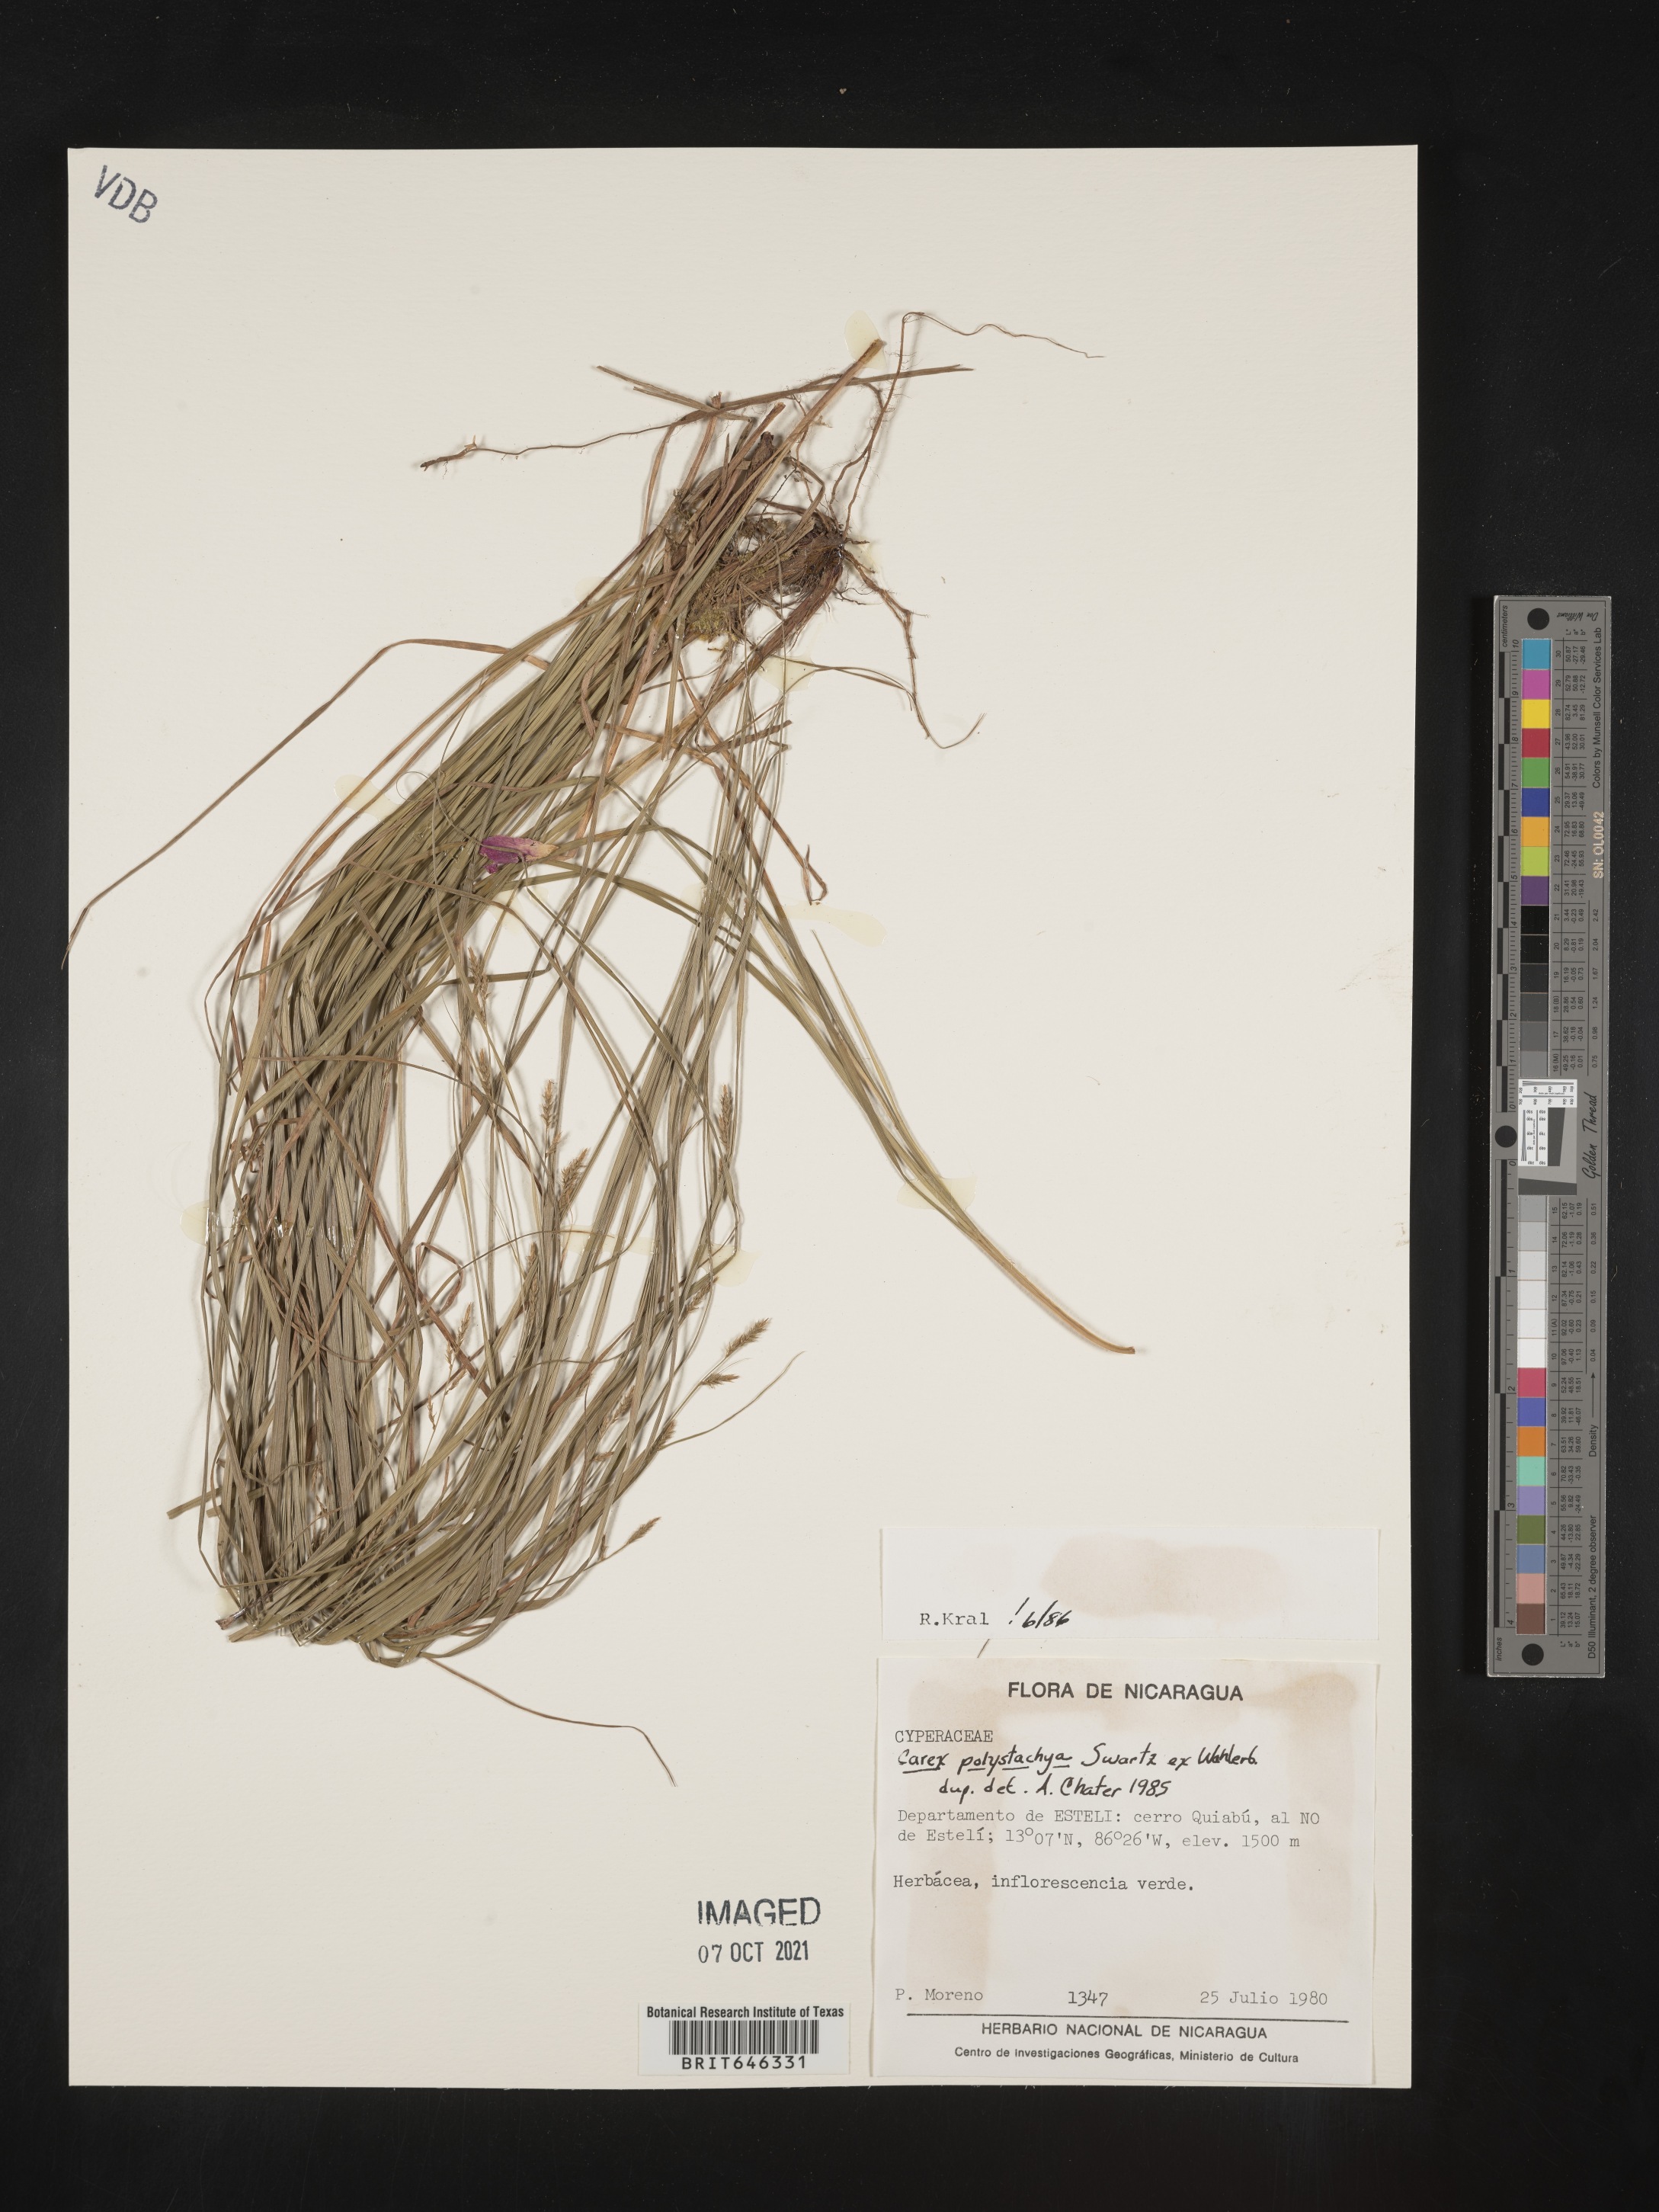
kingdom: Plantae
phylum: Tracheophyta
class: Liliopsida
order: Poales
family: Cyperaceae
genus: Carex
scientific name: Carex polystachya
